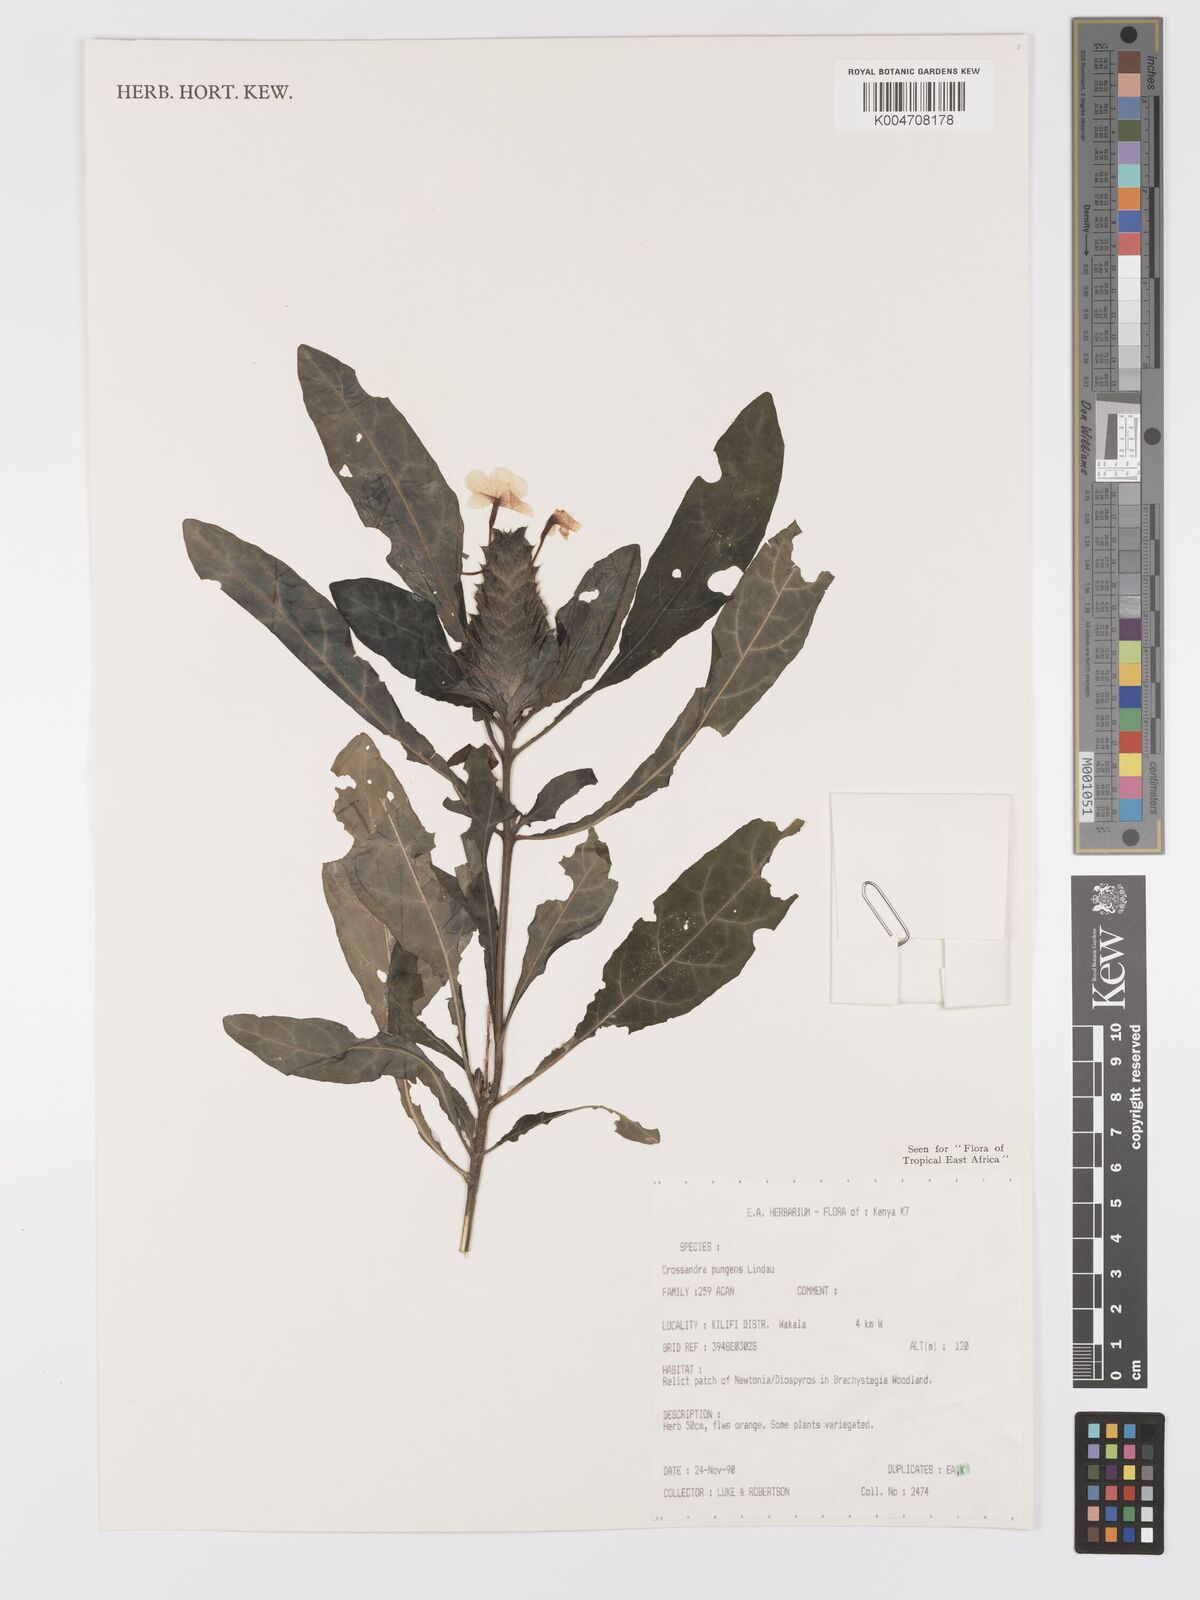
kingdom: Plantae
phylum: Tracheophyta
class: Magnoliopsida
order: Lamiales
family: Acanthaceae
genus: Crossandra
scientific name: Crossandra pungens
